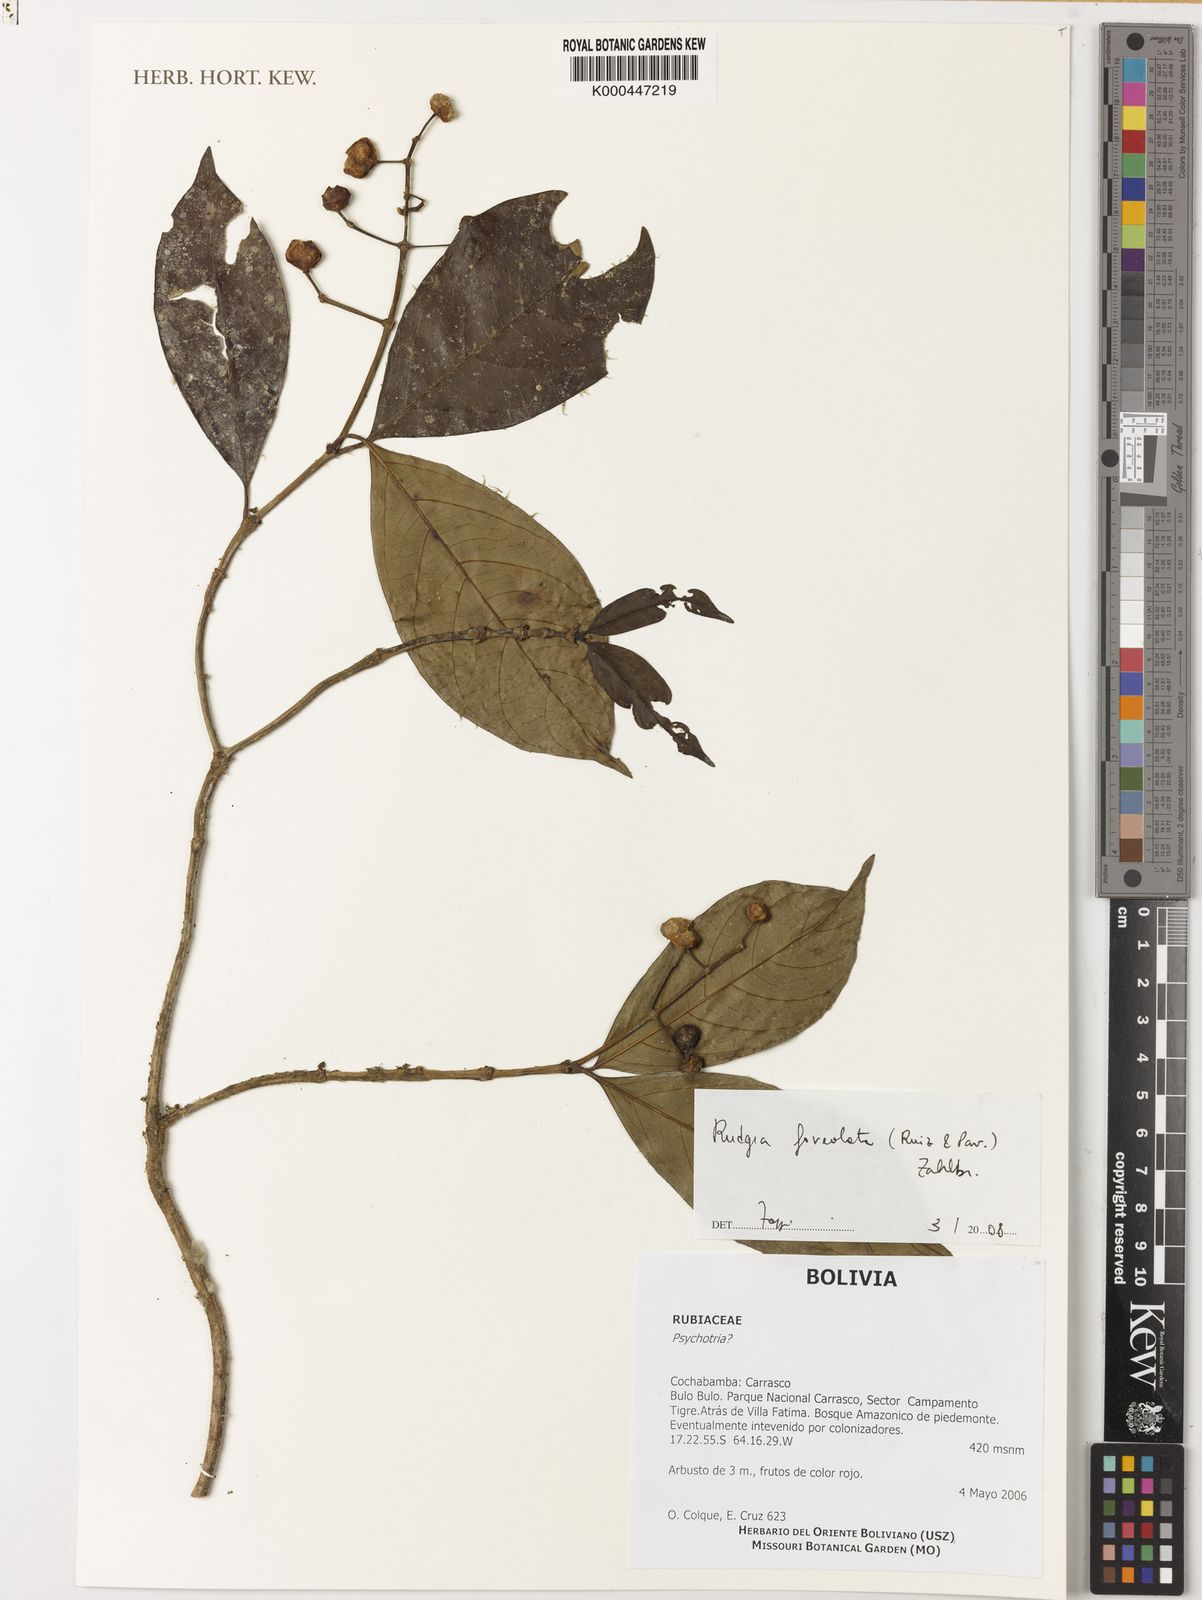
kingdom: Plantae
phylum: Tracheophyta
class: Magnoliopsida
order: Gentianales
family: Rubiaceae
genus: Rudgea
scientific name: Rudgea foveolata
